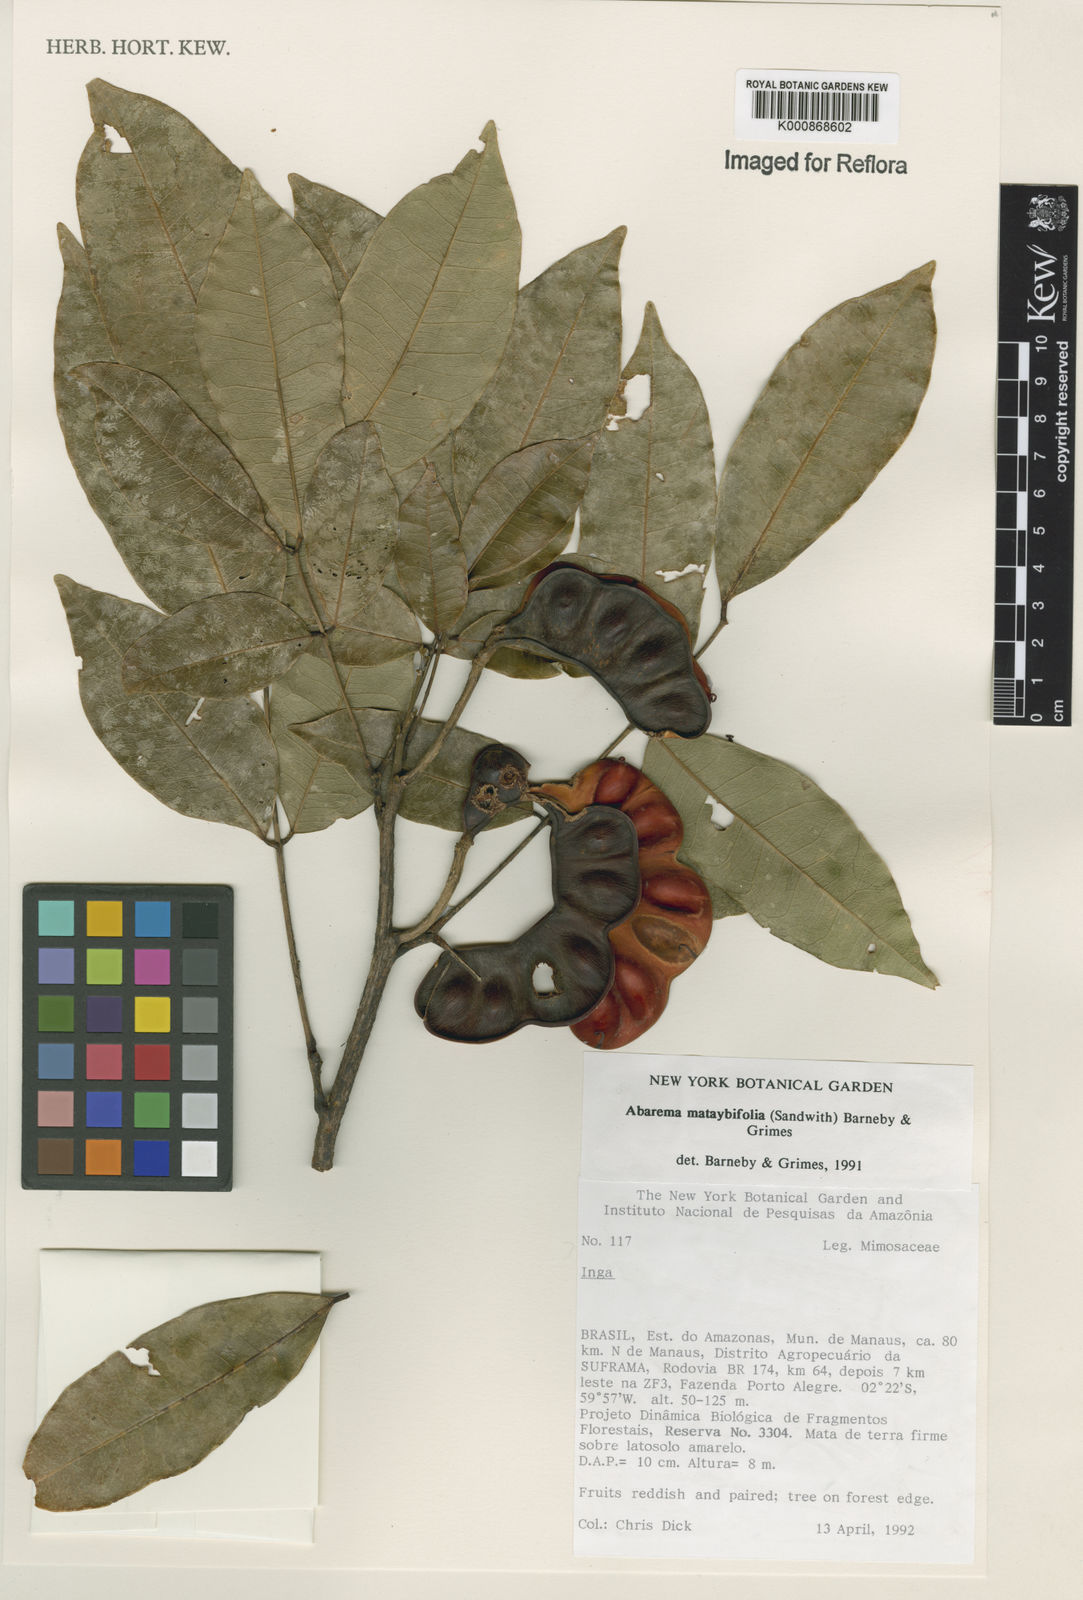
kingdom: Plantae
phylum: Tracheophyta
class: Magnoliopsida
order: Fabales
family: Fabaceae
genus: Jupunba
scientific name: Jupunba mataybifolia
